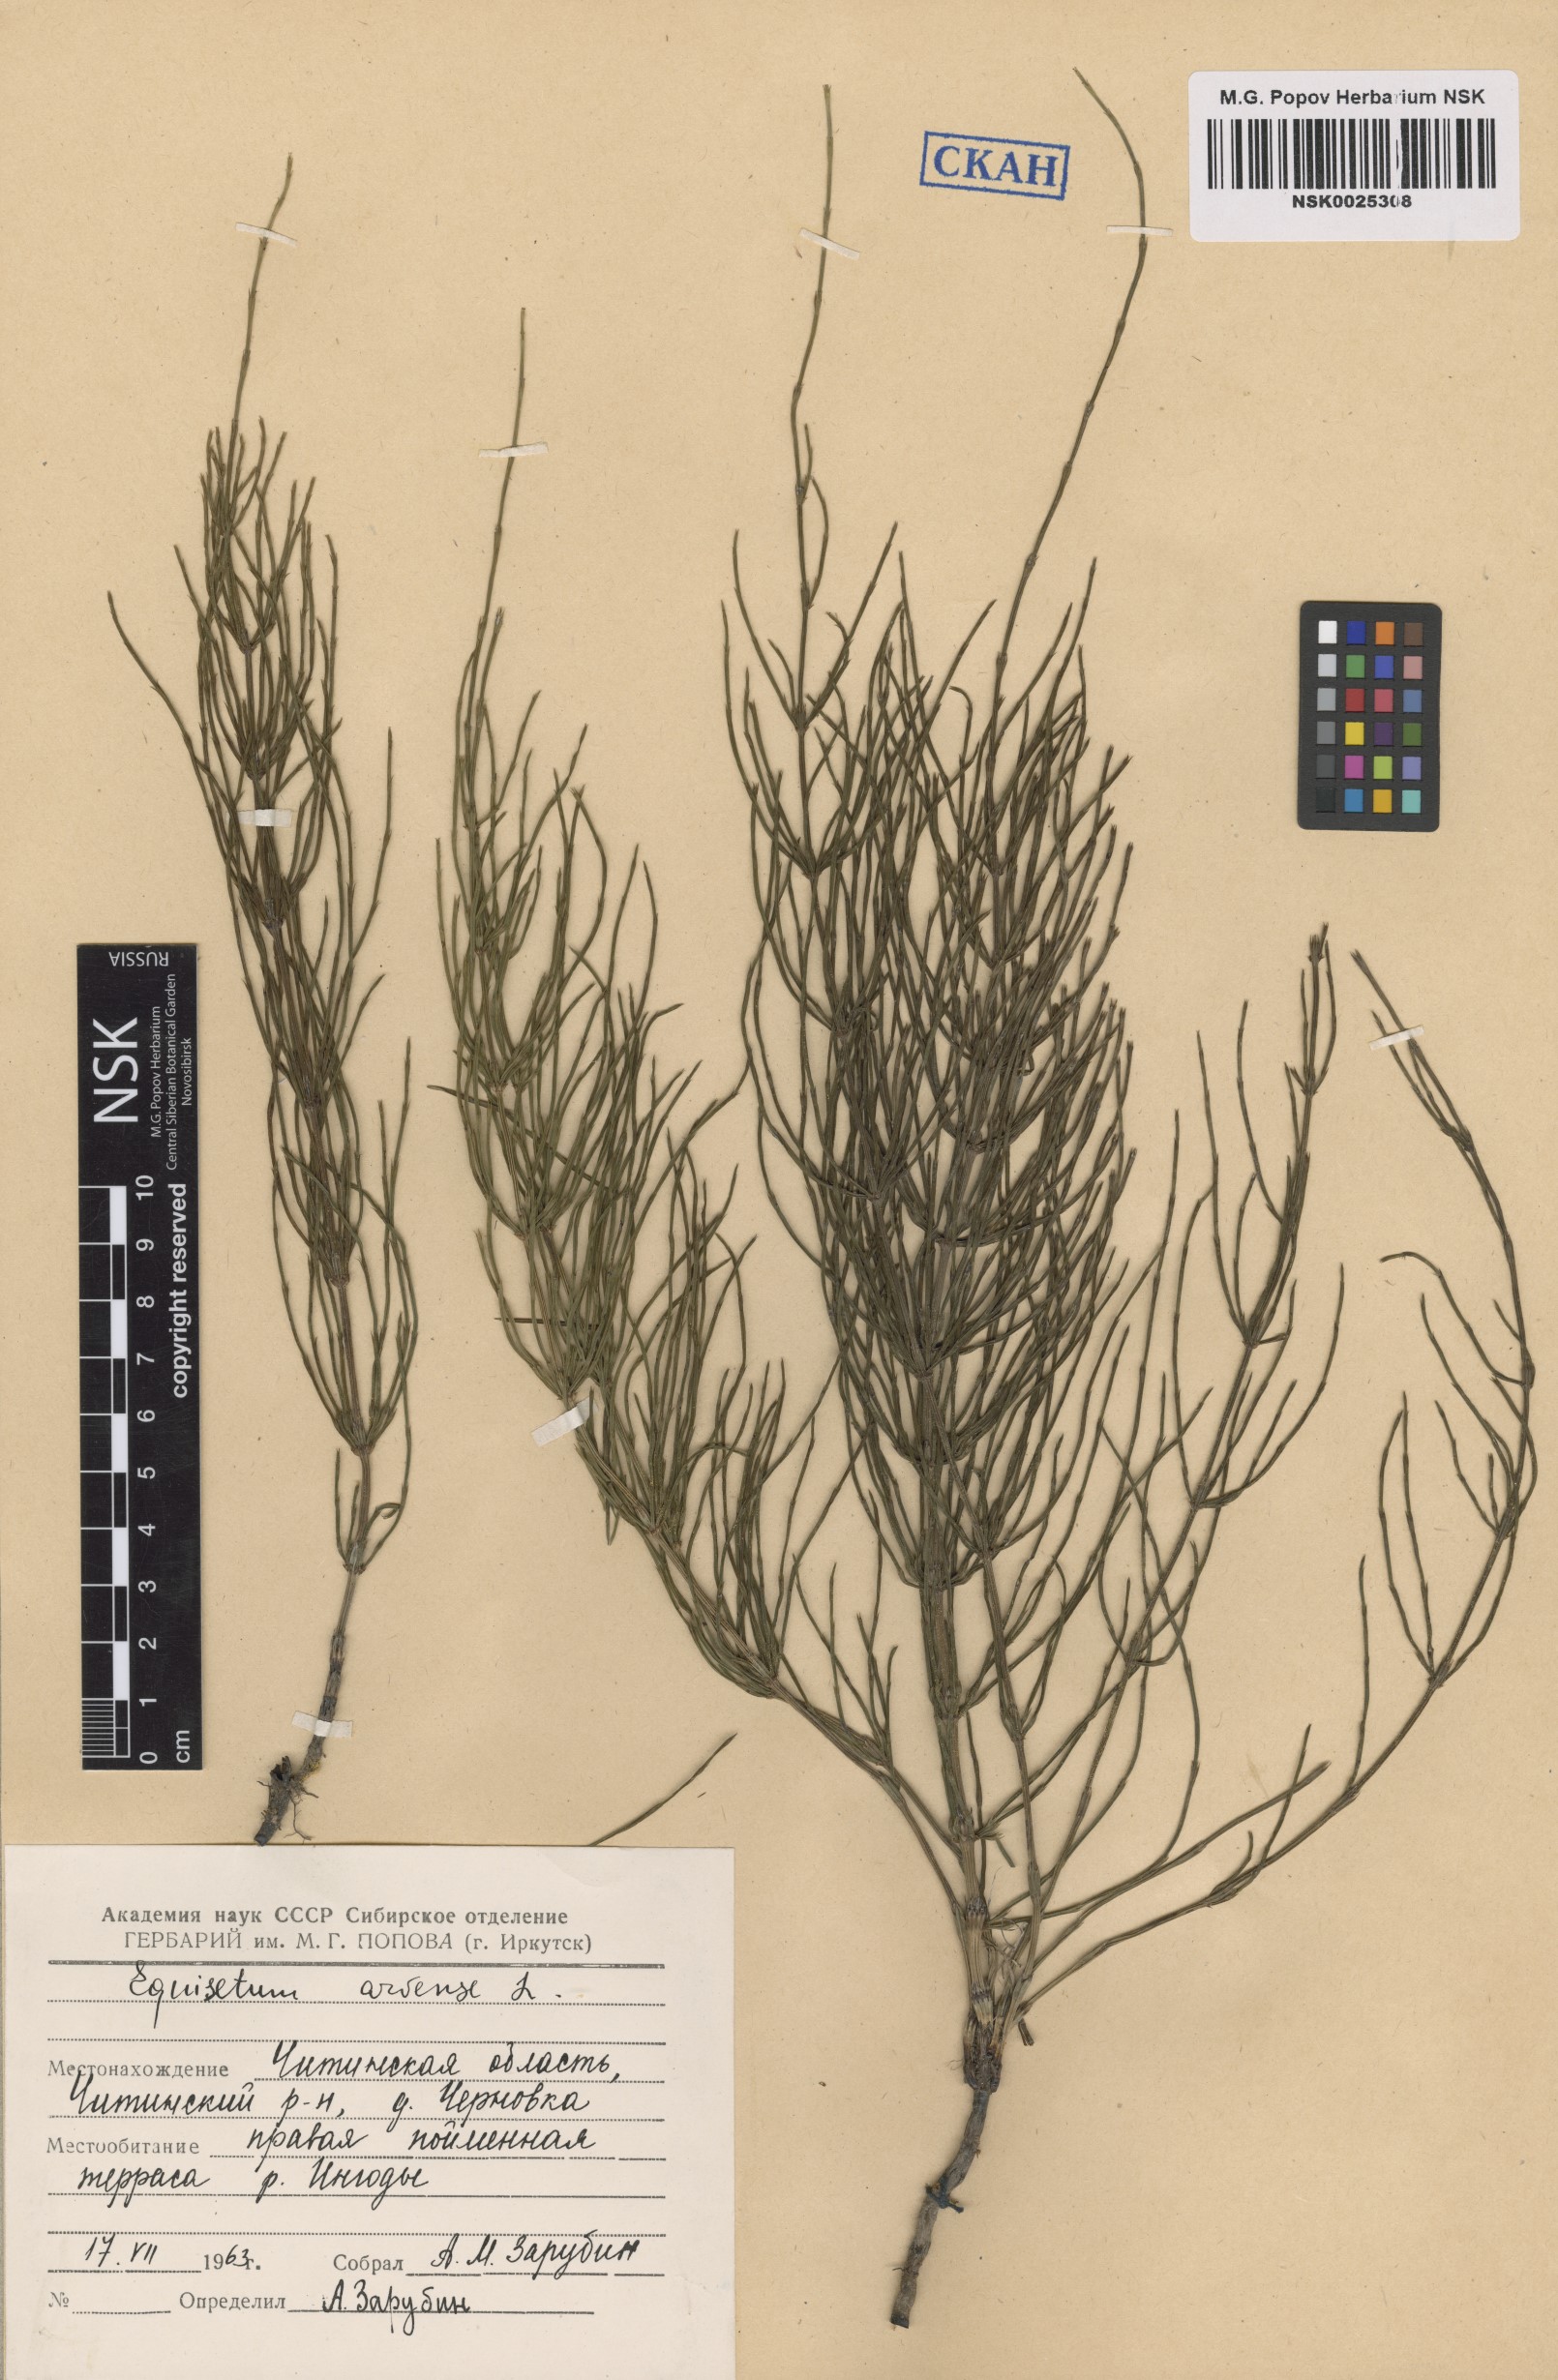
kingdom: Plantae
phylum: Tracheophyta
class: Polypodiopsida
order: Equisetales
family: Equisetaceae
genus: Equisetum
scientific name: Equisetum arvense
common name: Field horsetail
